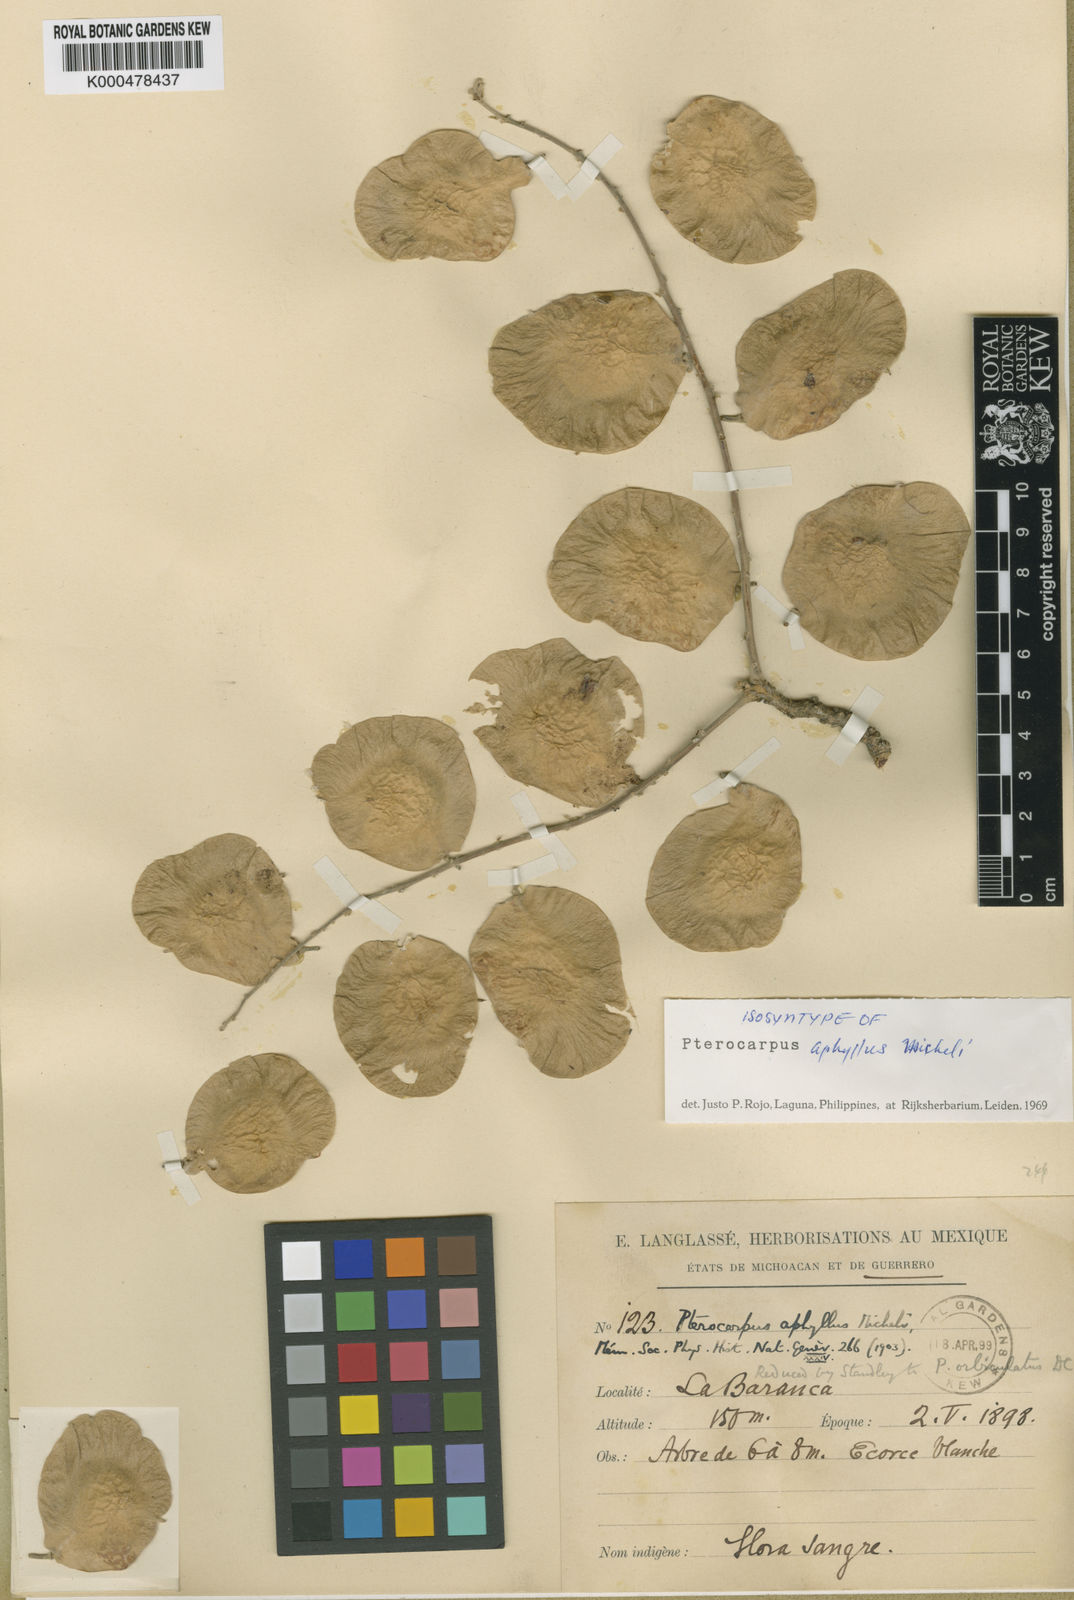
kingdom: Plantae
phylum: Tracheophyta
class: Magnoliopsida
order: Fabales
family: Fabaceae
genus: Pterocarpus
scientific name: Pterocarpus orbiculatus
